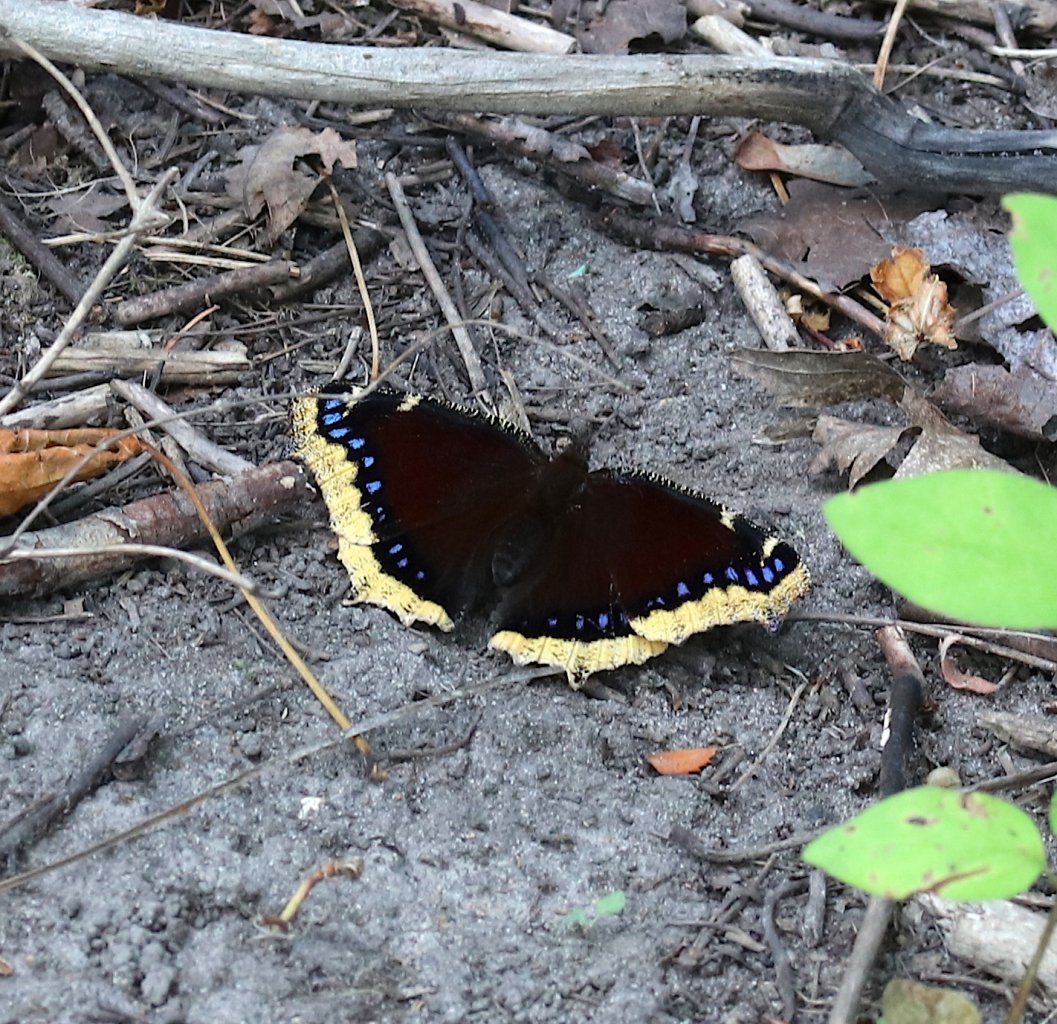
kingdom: Animalia
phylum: Arthropoda
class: Insecta
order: Lepidoptera
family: Nymphalidae
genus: Nymphalis
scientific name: Nymphalis antiopa
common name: Mourning Cloak
